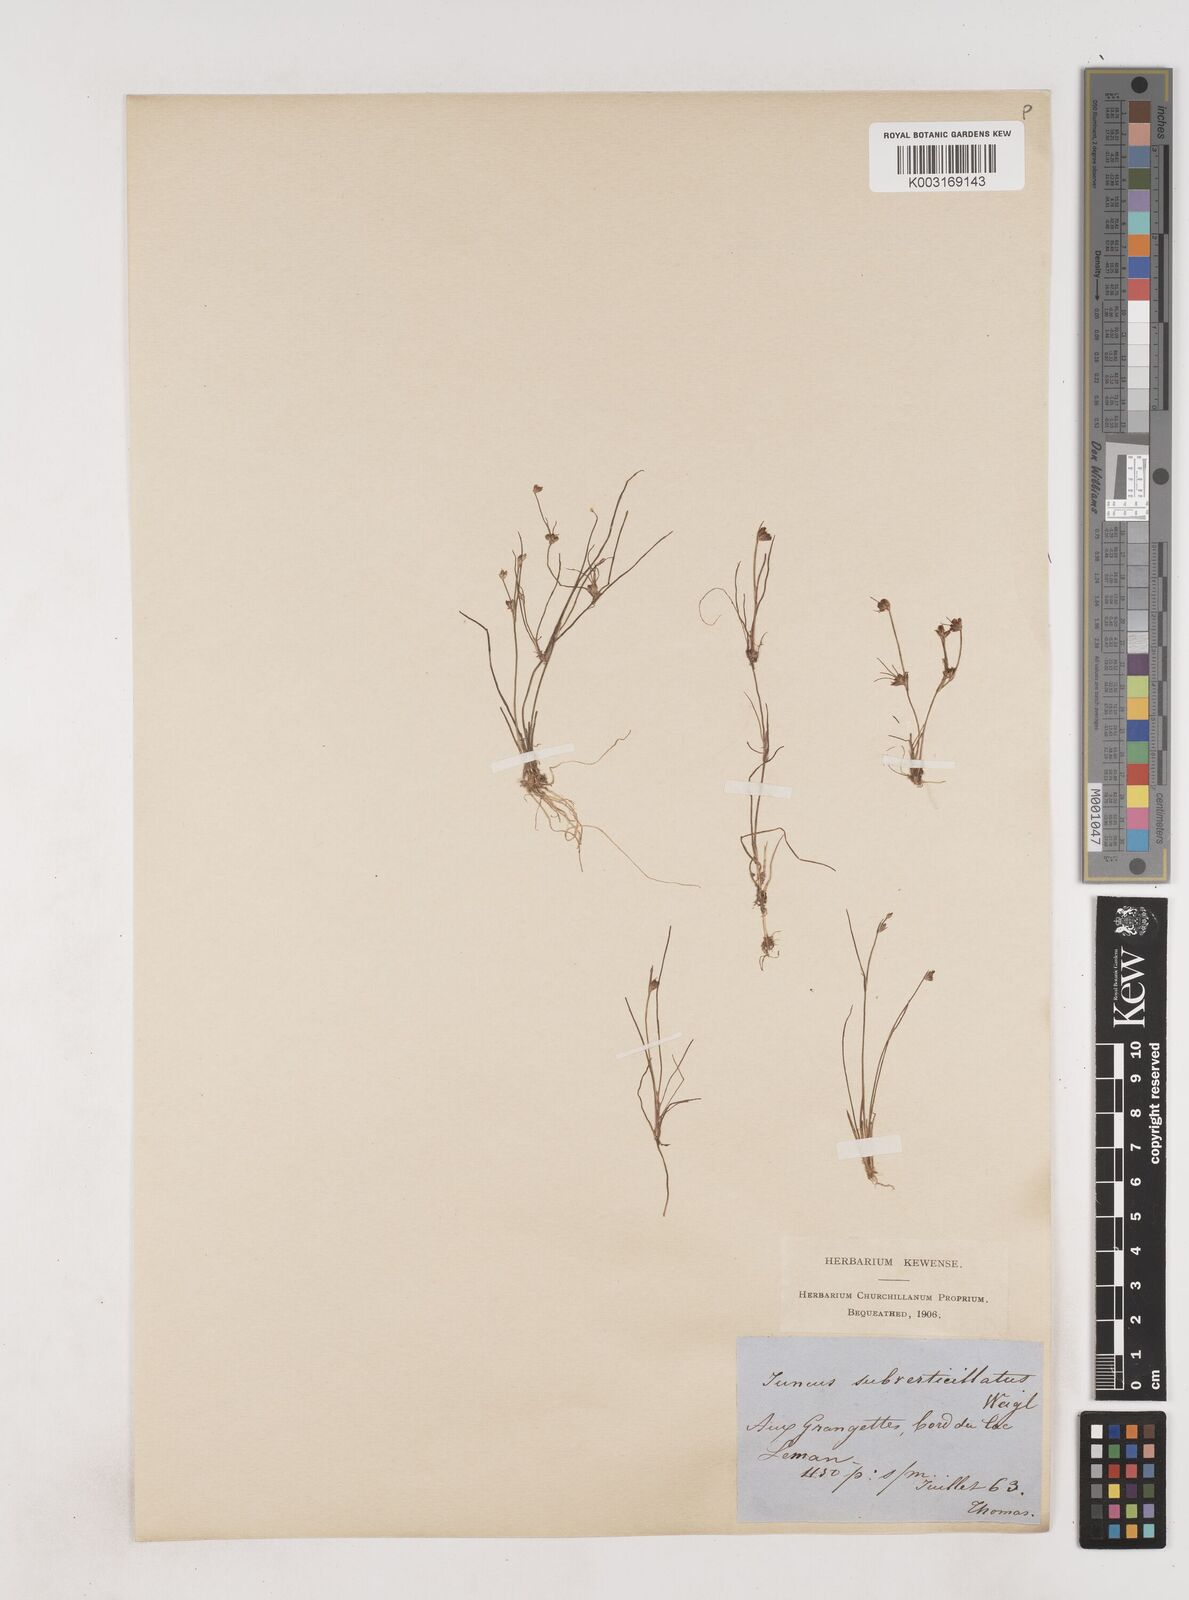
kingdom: Plantae
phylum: Tracheophyta
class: Liliopsida
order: Poales
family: Juncaceae
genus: Juncus
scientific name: Juncus bulbosus
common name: Bulbous rush
